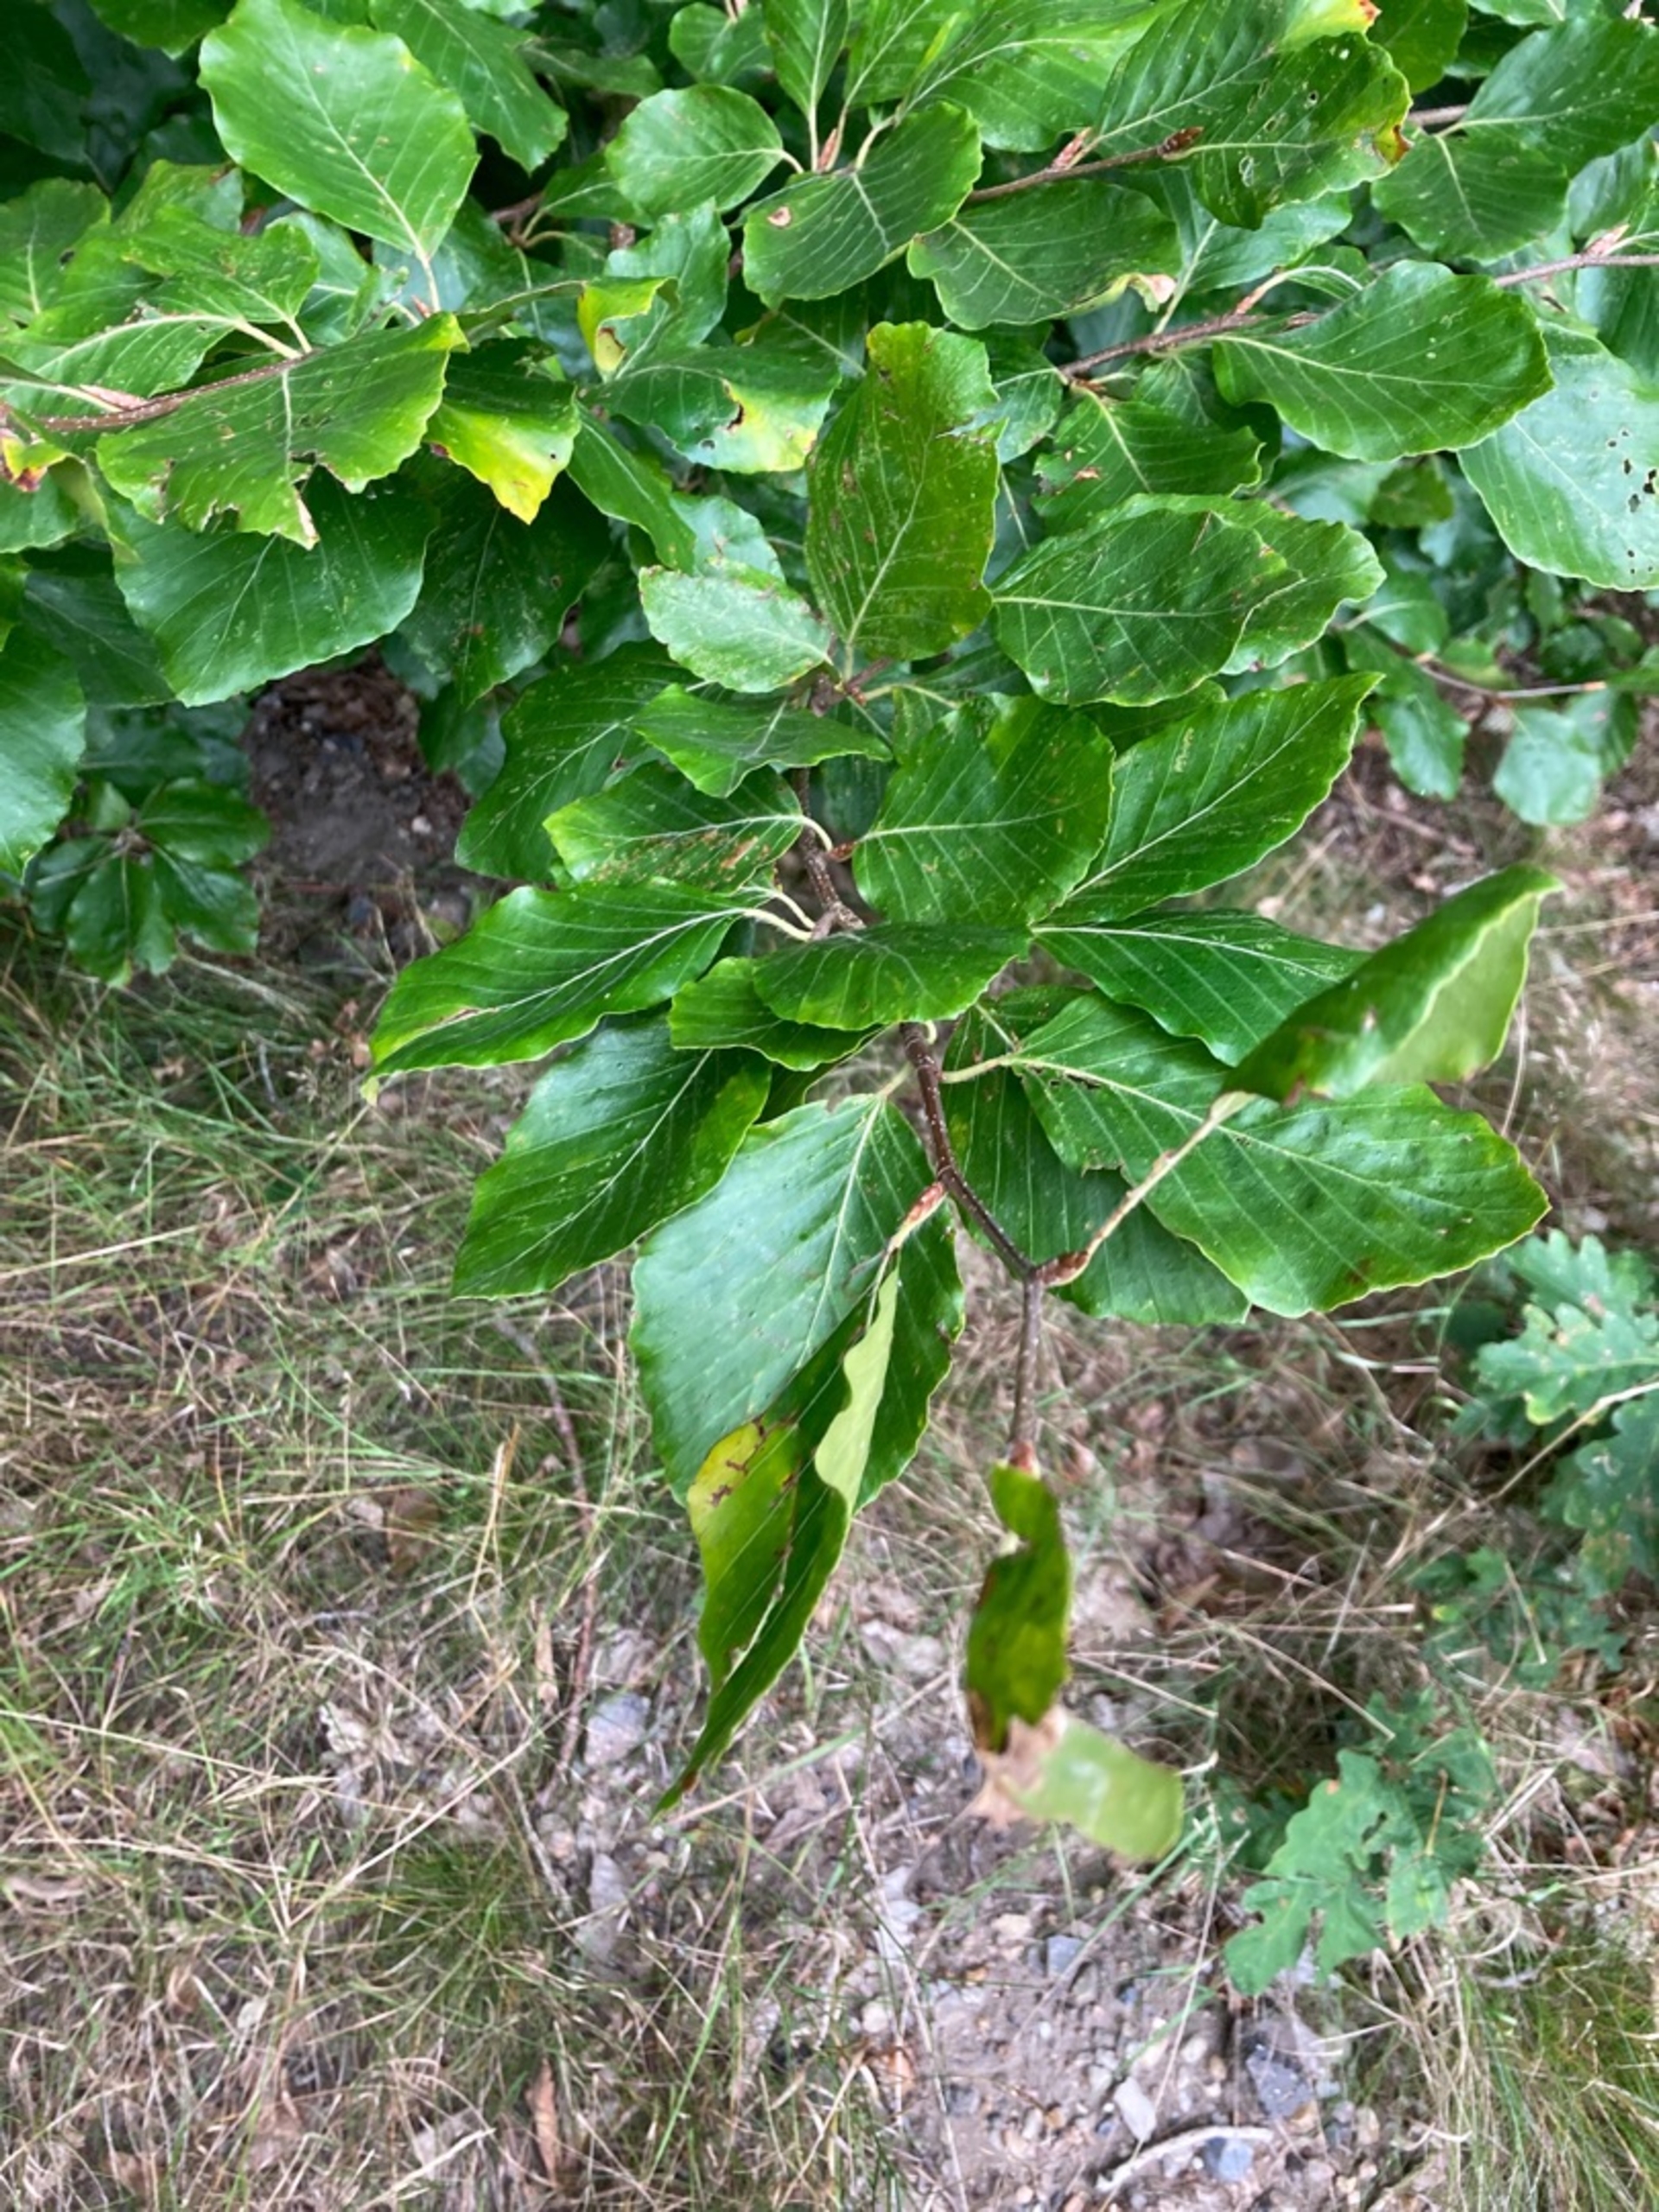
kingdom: Plantae
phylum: Tracheophyta
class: Magnoliopsida
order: Fagales
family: Fagaceae
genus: Fagus
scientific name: Fagus sylvatica
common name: Bøg
